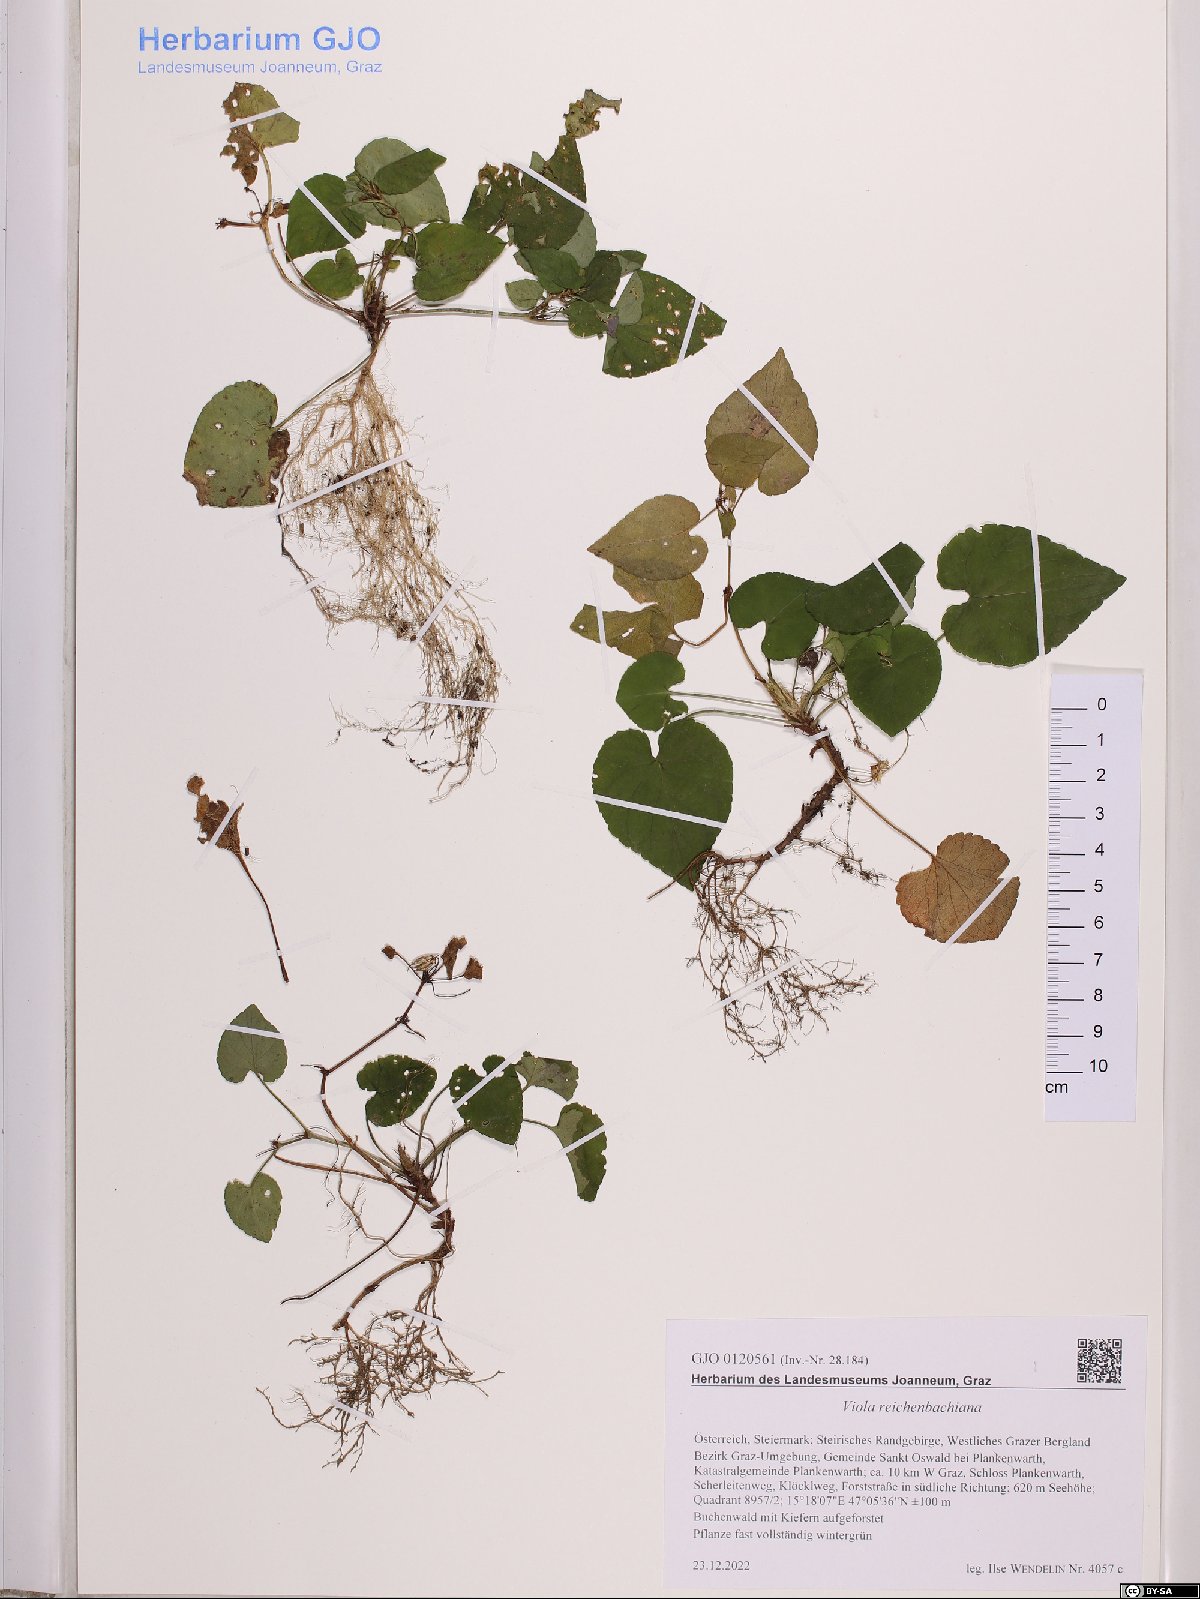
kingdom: Plantae
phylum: Tracheophyta
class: Magnoliopsida
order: Malpighiales
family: Violaceae
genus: Viola
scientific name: Viola reichenbachiana
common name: Early dog-violet
